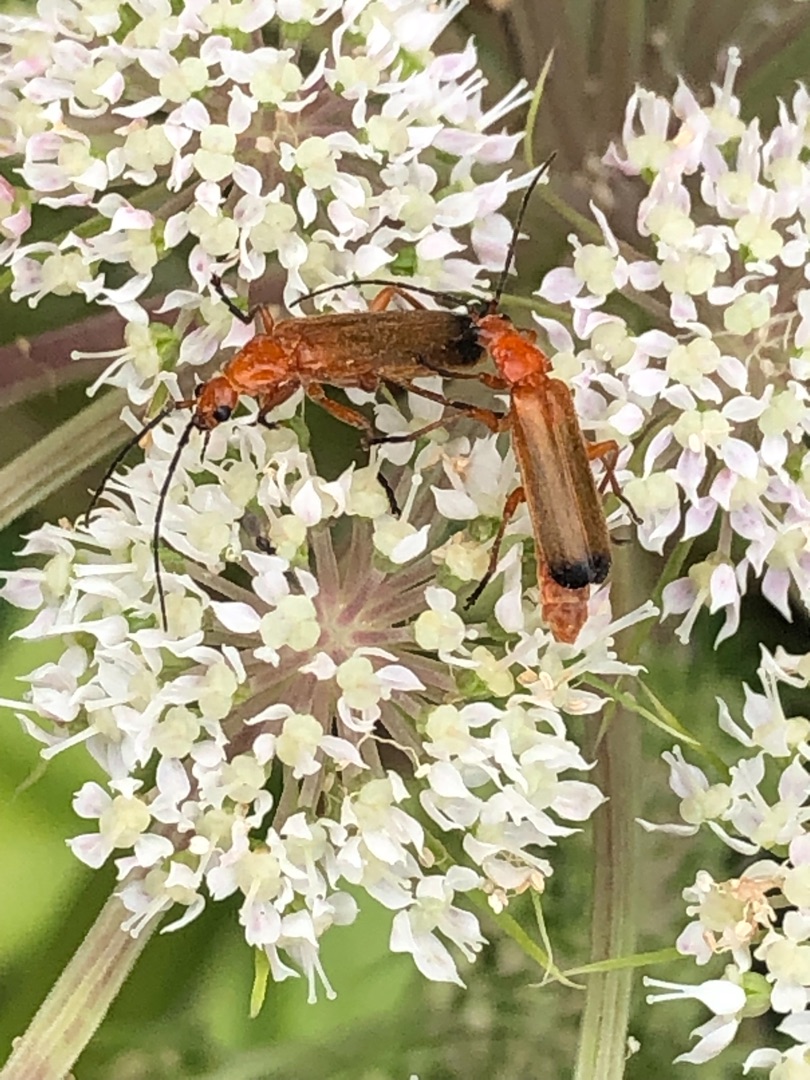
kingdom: Animalia
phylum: Arthropoda
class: Insecta
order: Coleoptera
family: Cantharidae
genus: Rhagonycha
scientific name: Rhagonycha fulva
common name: Præstebille
